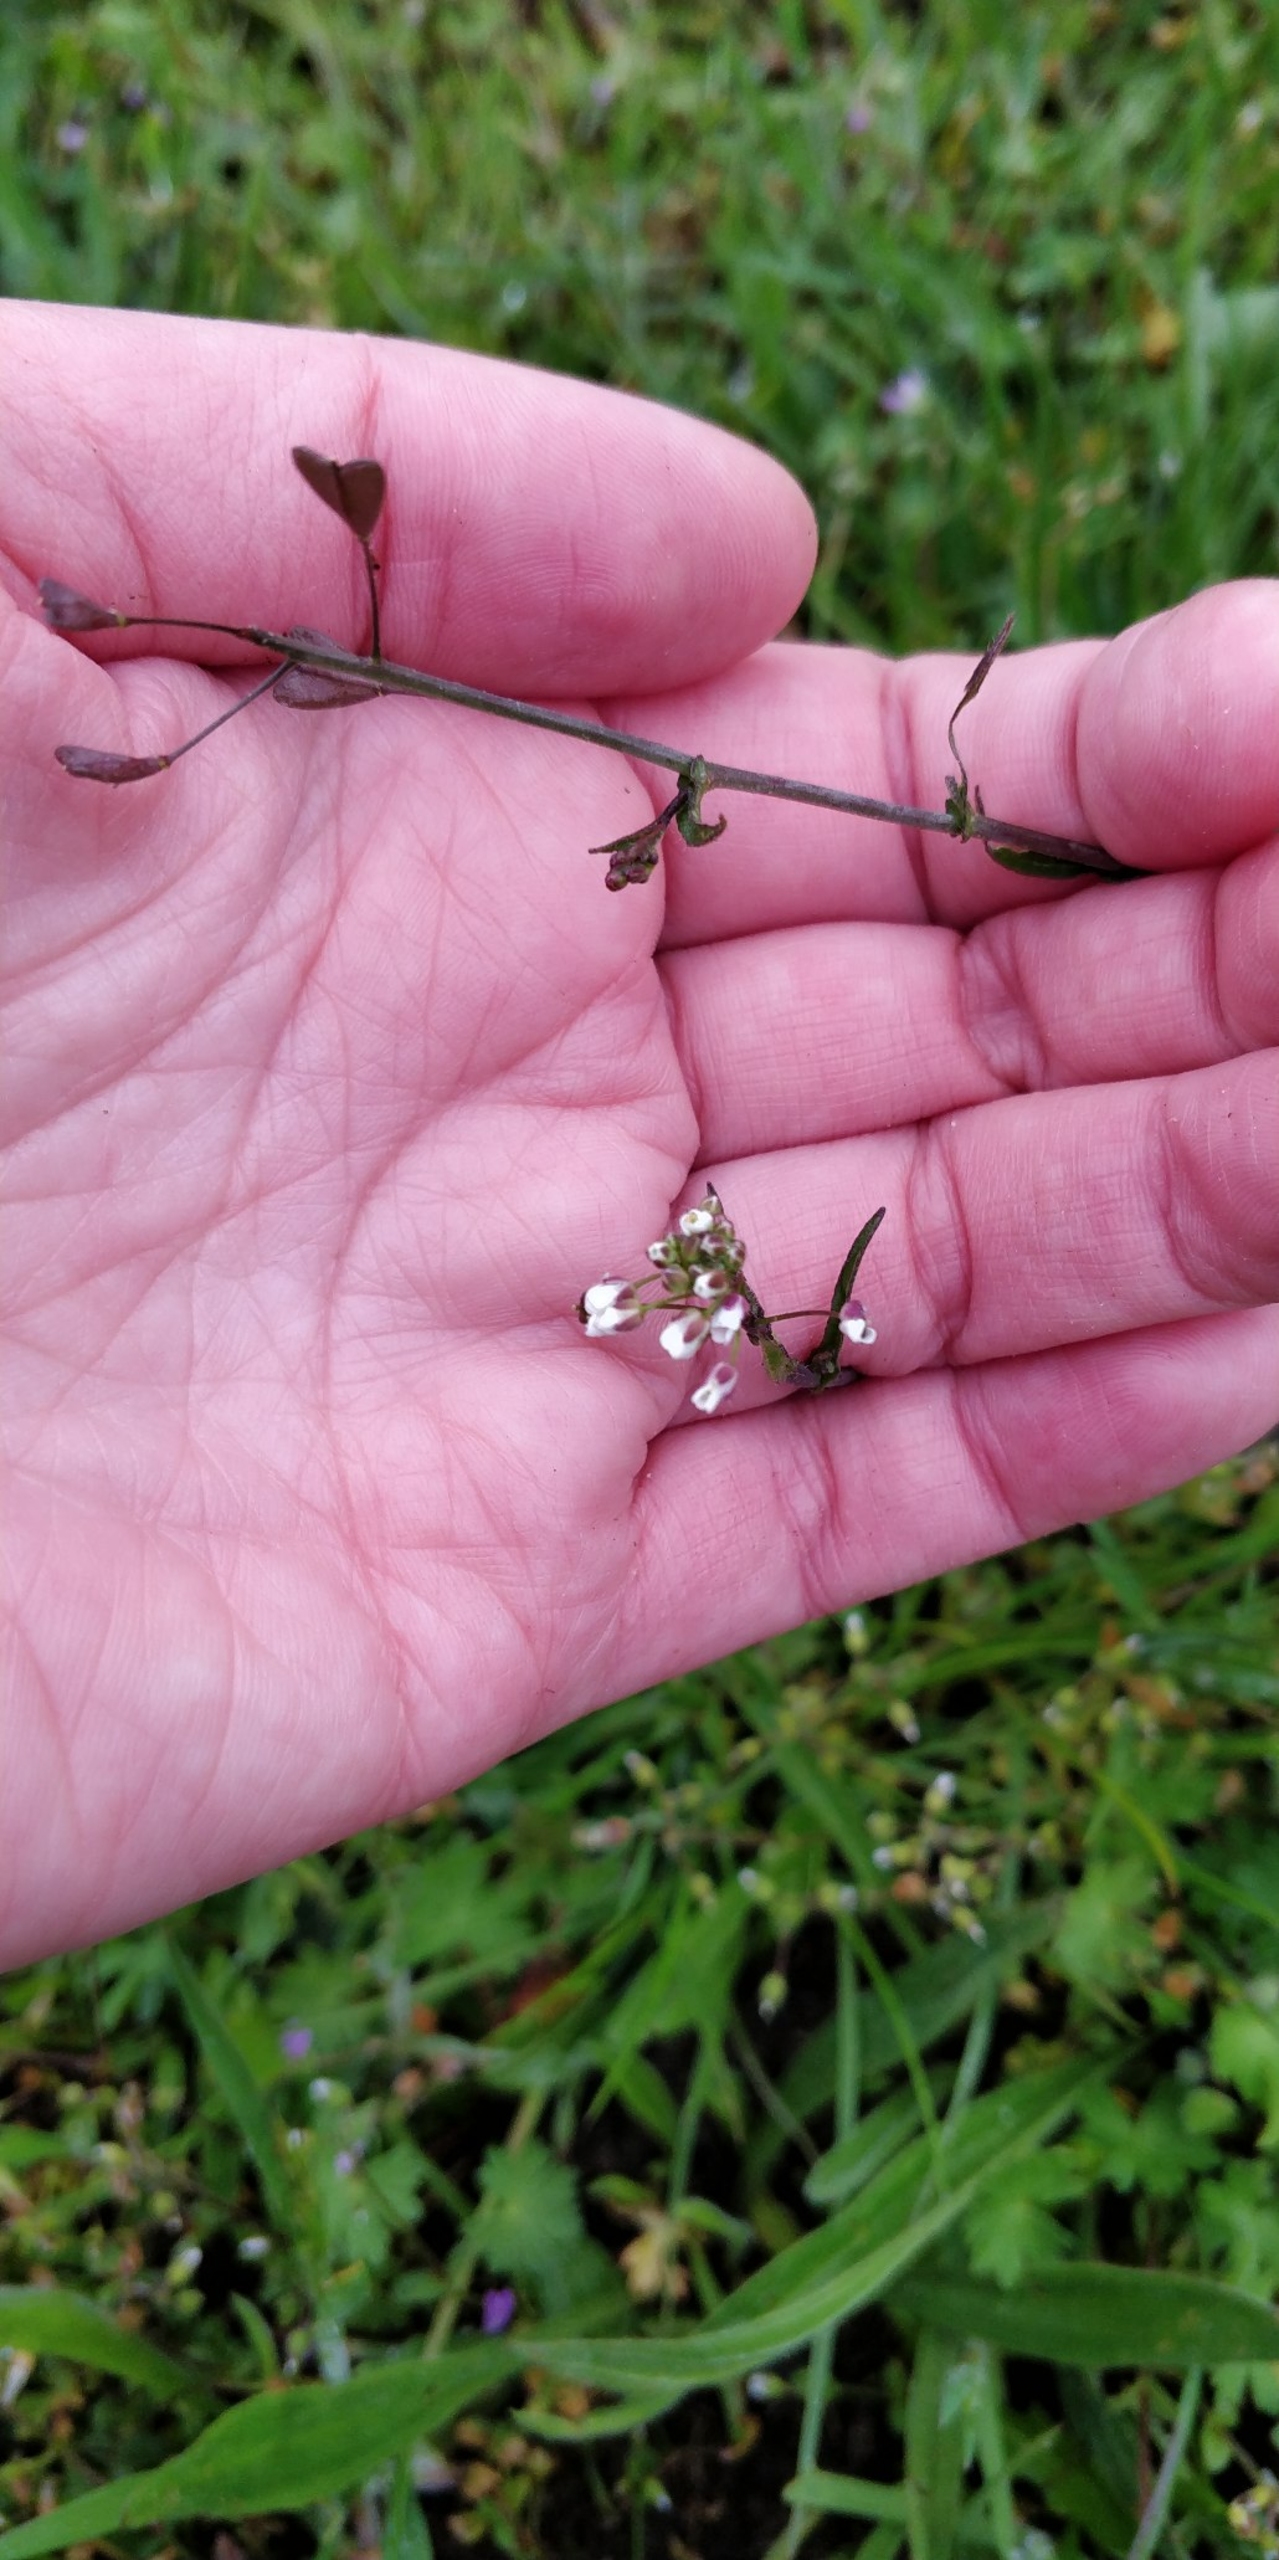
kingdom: Plantae
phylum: Tracheophyta
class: Magnoliopsida
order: Brassicales
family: Brassicaceae
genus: Capsella
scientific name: Capsella bursa-pastoris
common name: Hyrdetaske
